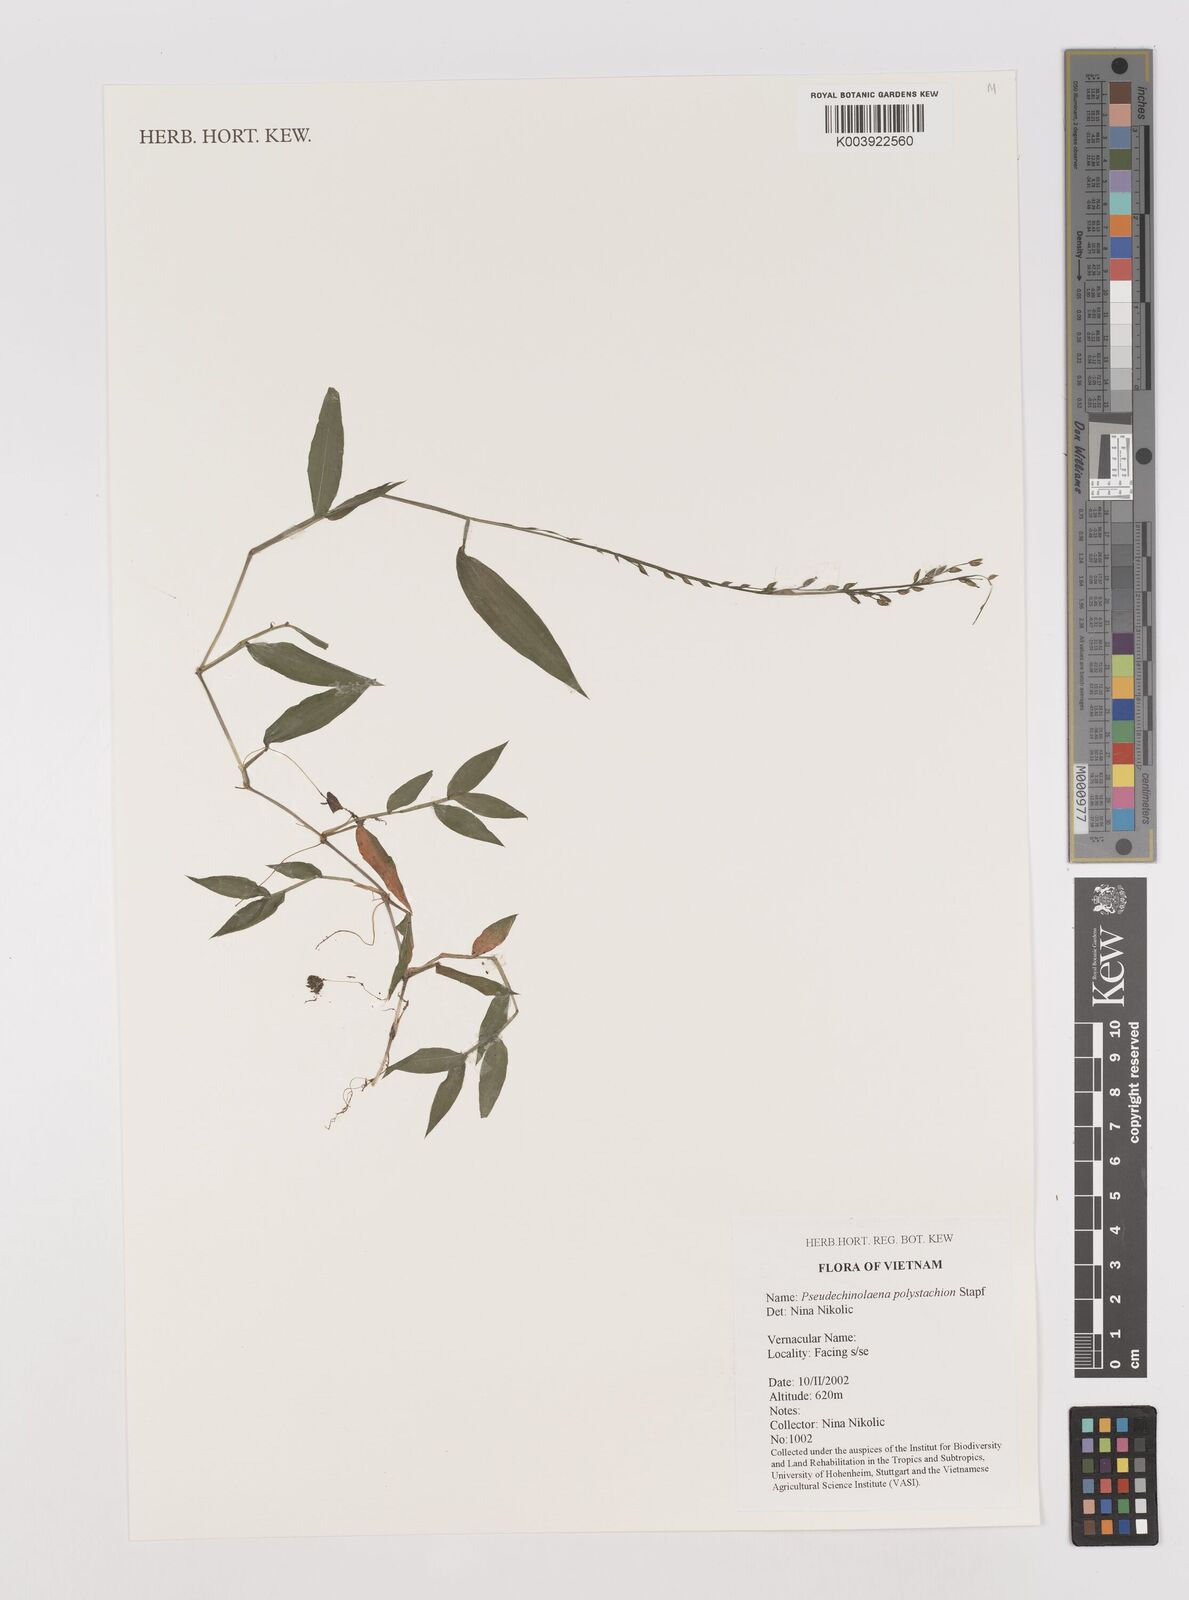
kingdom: Plantae
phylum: Tracheophyta
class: Liliopsida
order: Poales
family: Poaceae
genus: Pseudechinolaena
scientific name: Pseudechinolaena polystachya
